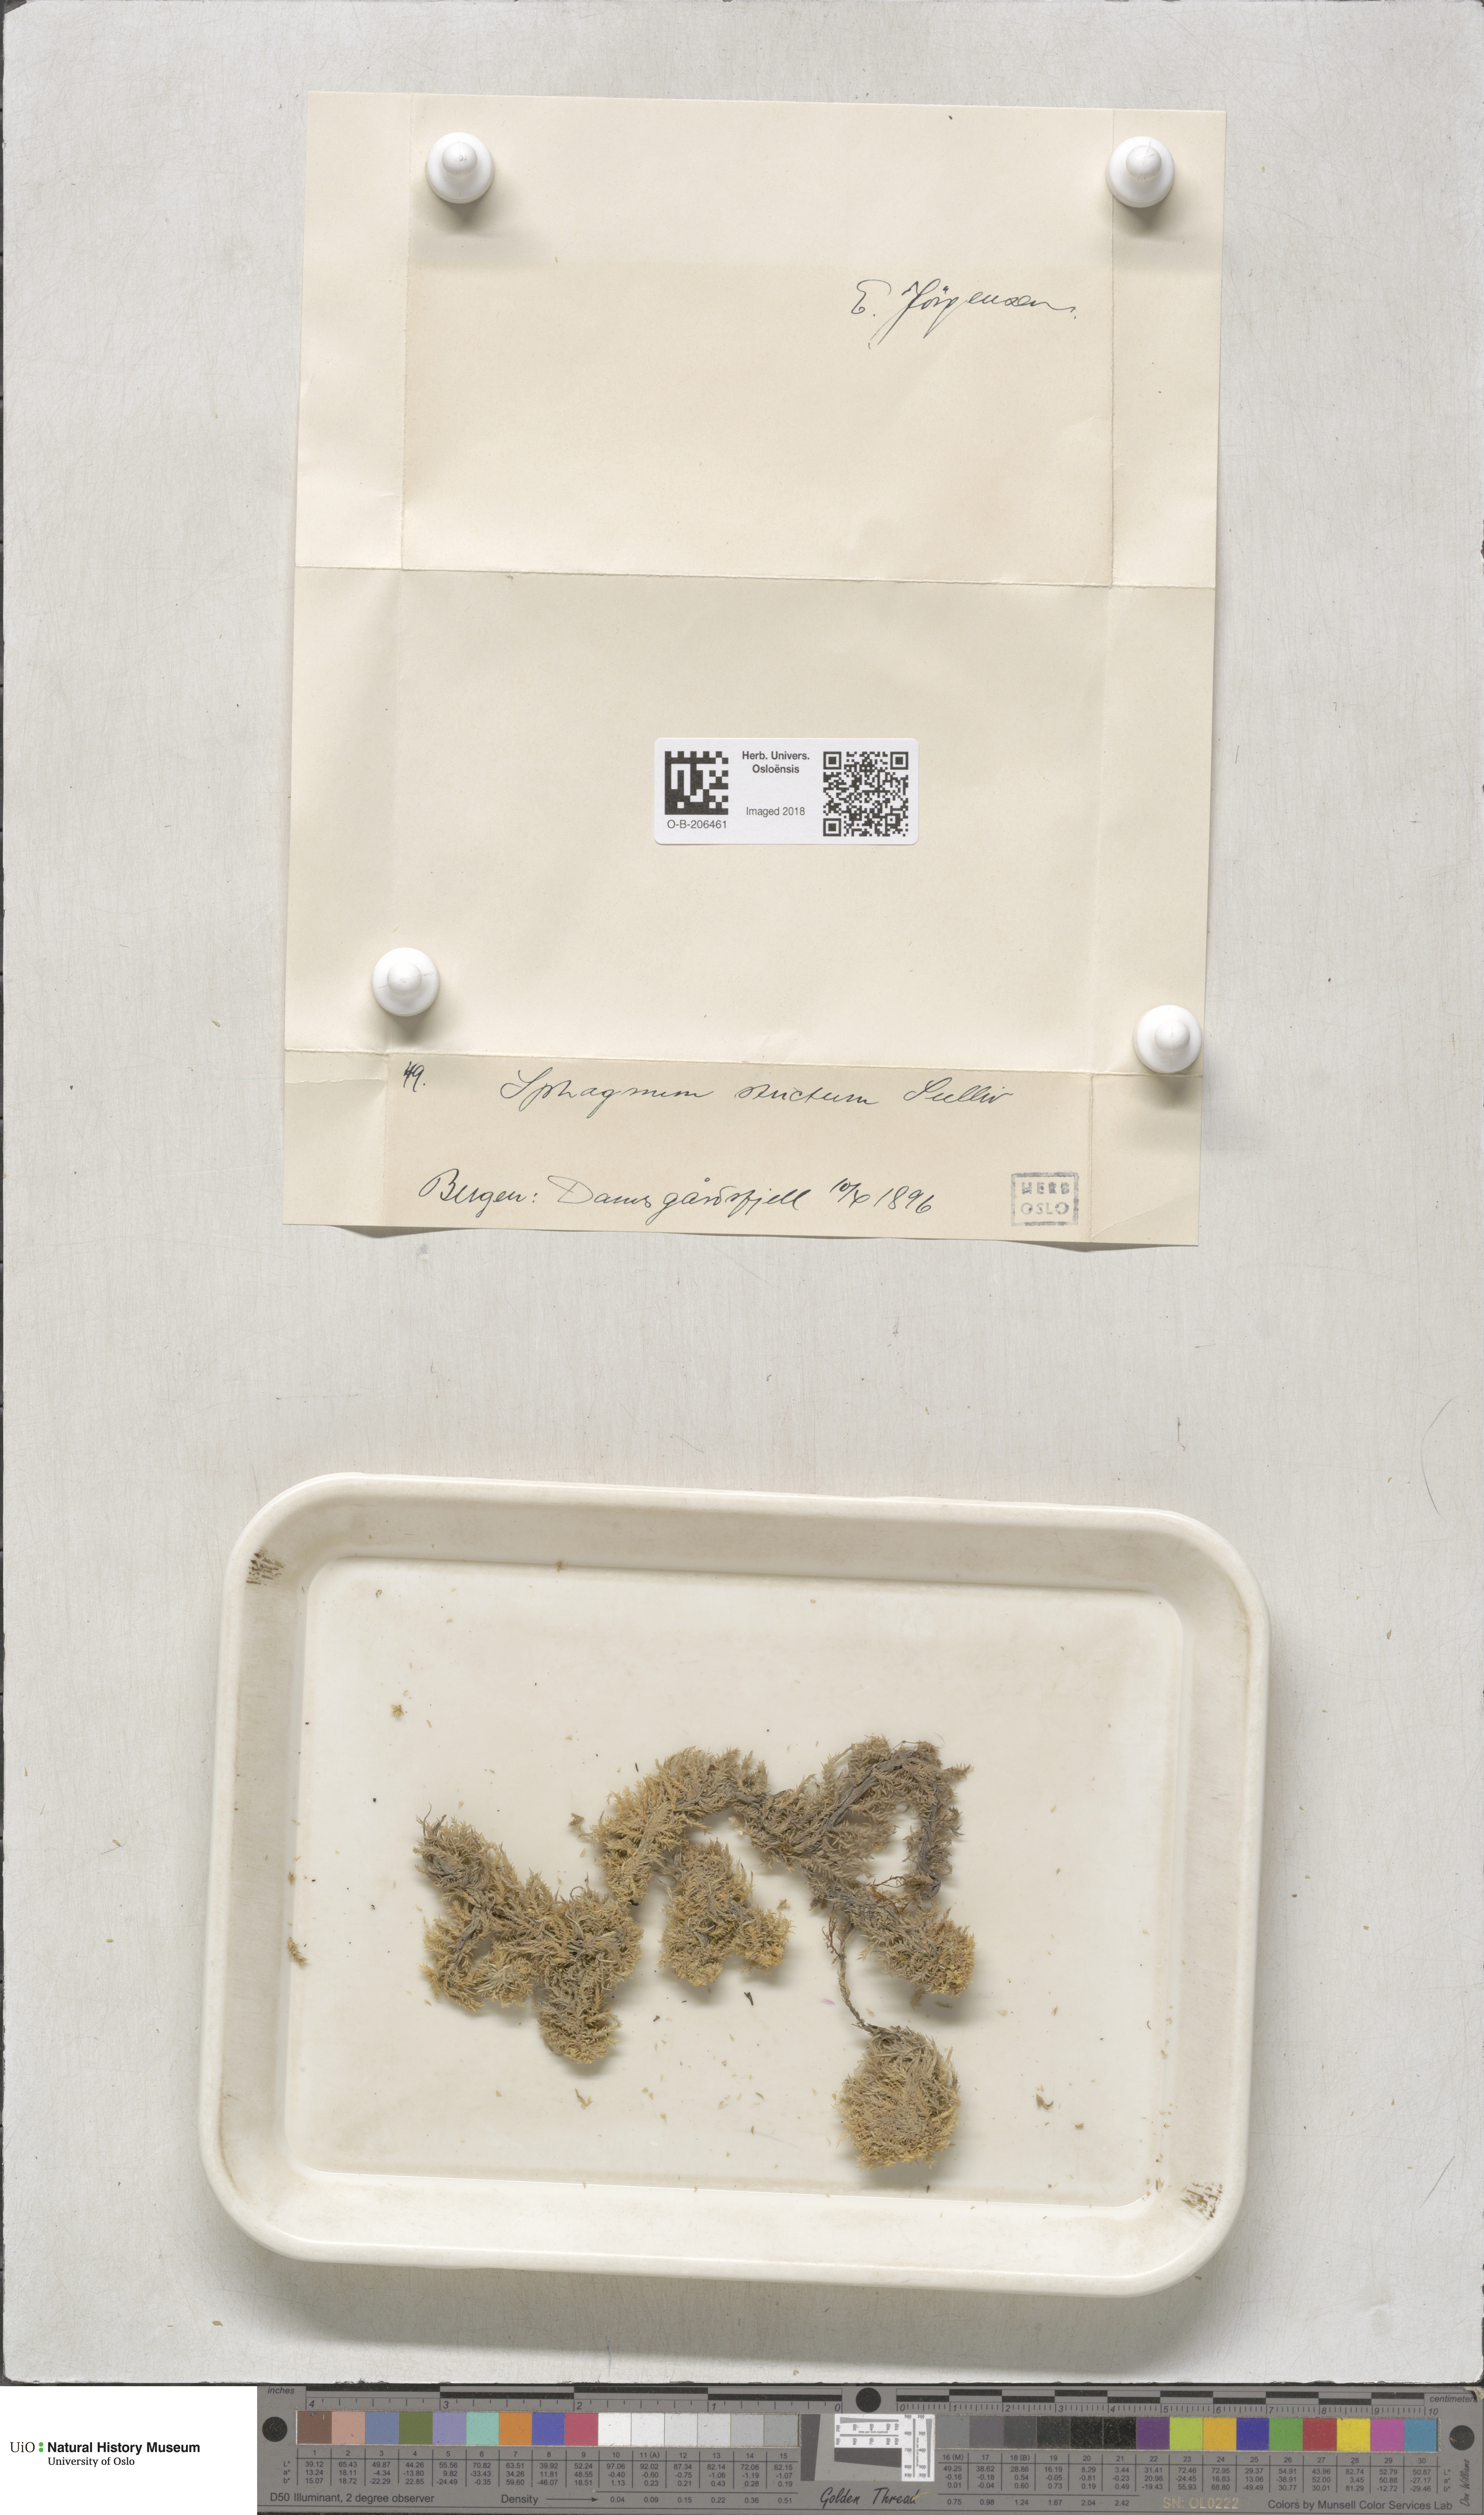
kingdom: Plantae
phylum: Bryophyta
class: Sphagnopsida
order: Sphagnales
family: Sphagnaceae
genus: Sphagnum
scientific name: Sphagnum strictum
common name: Pale bog-moss
